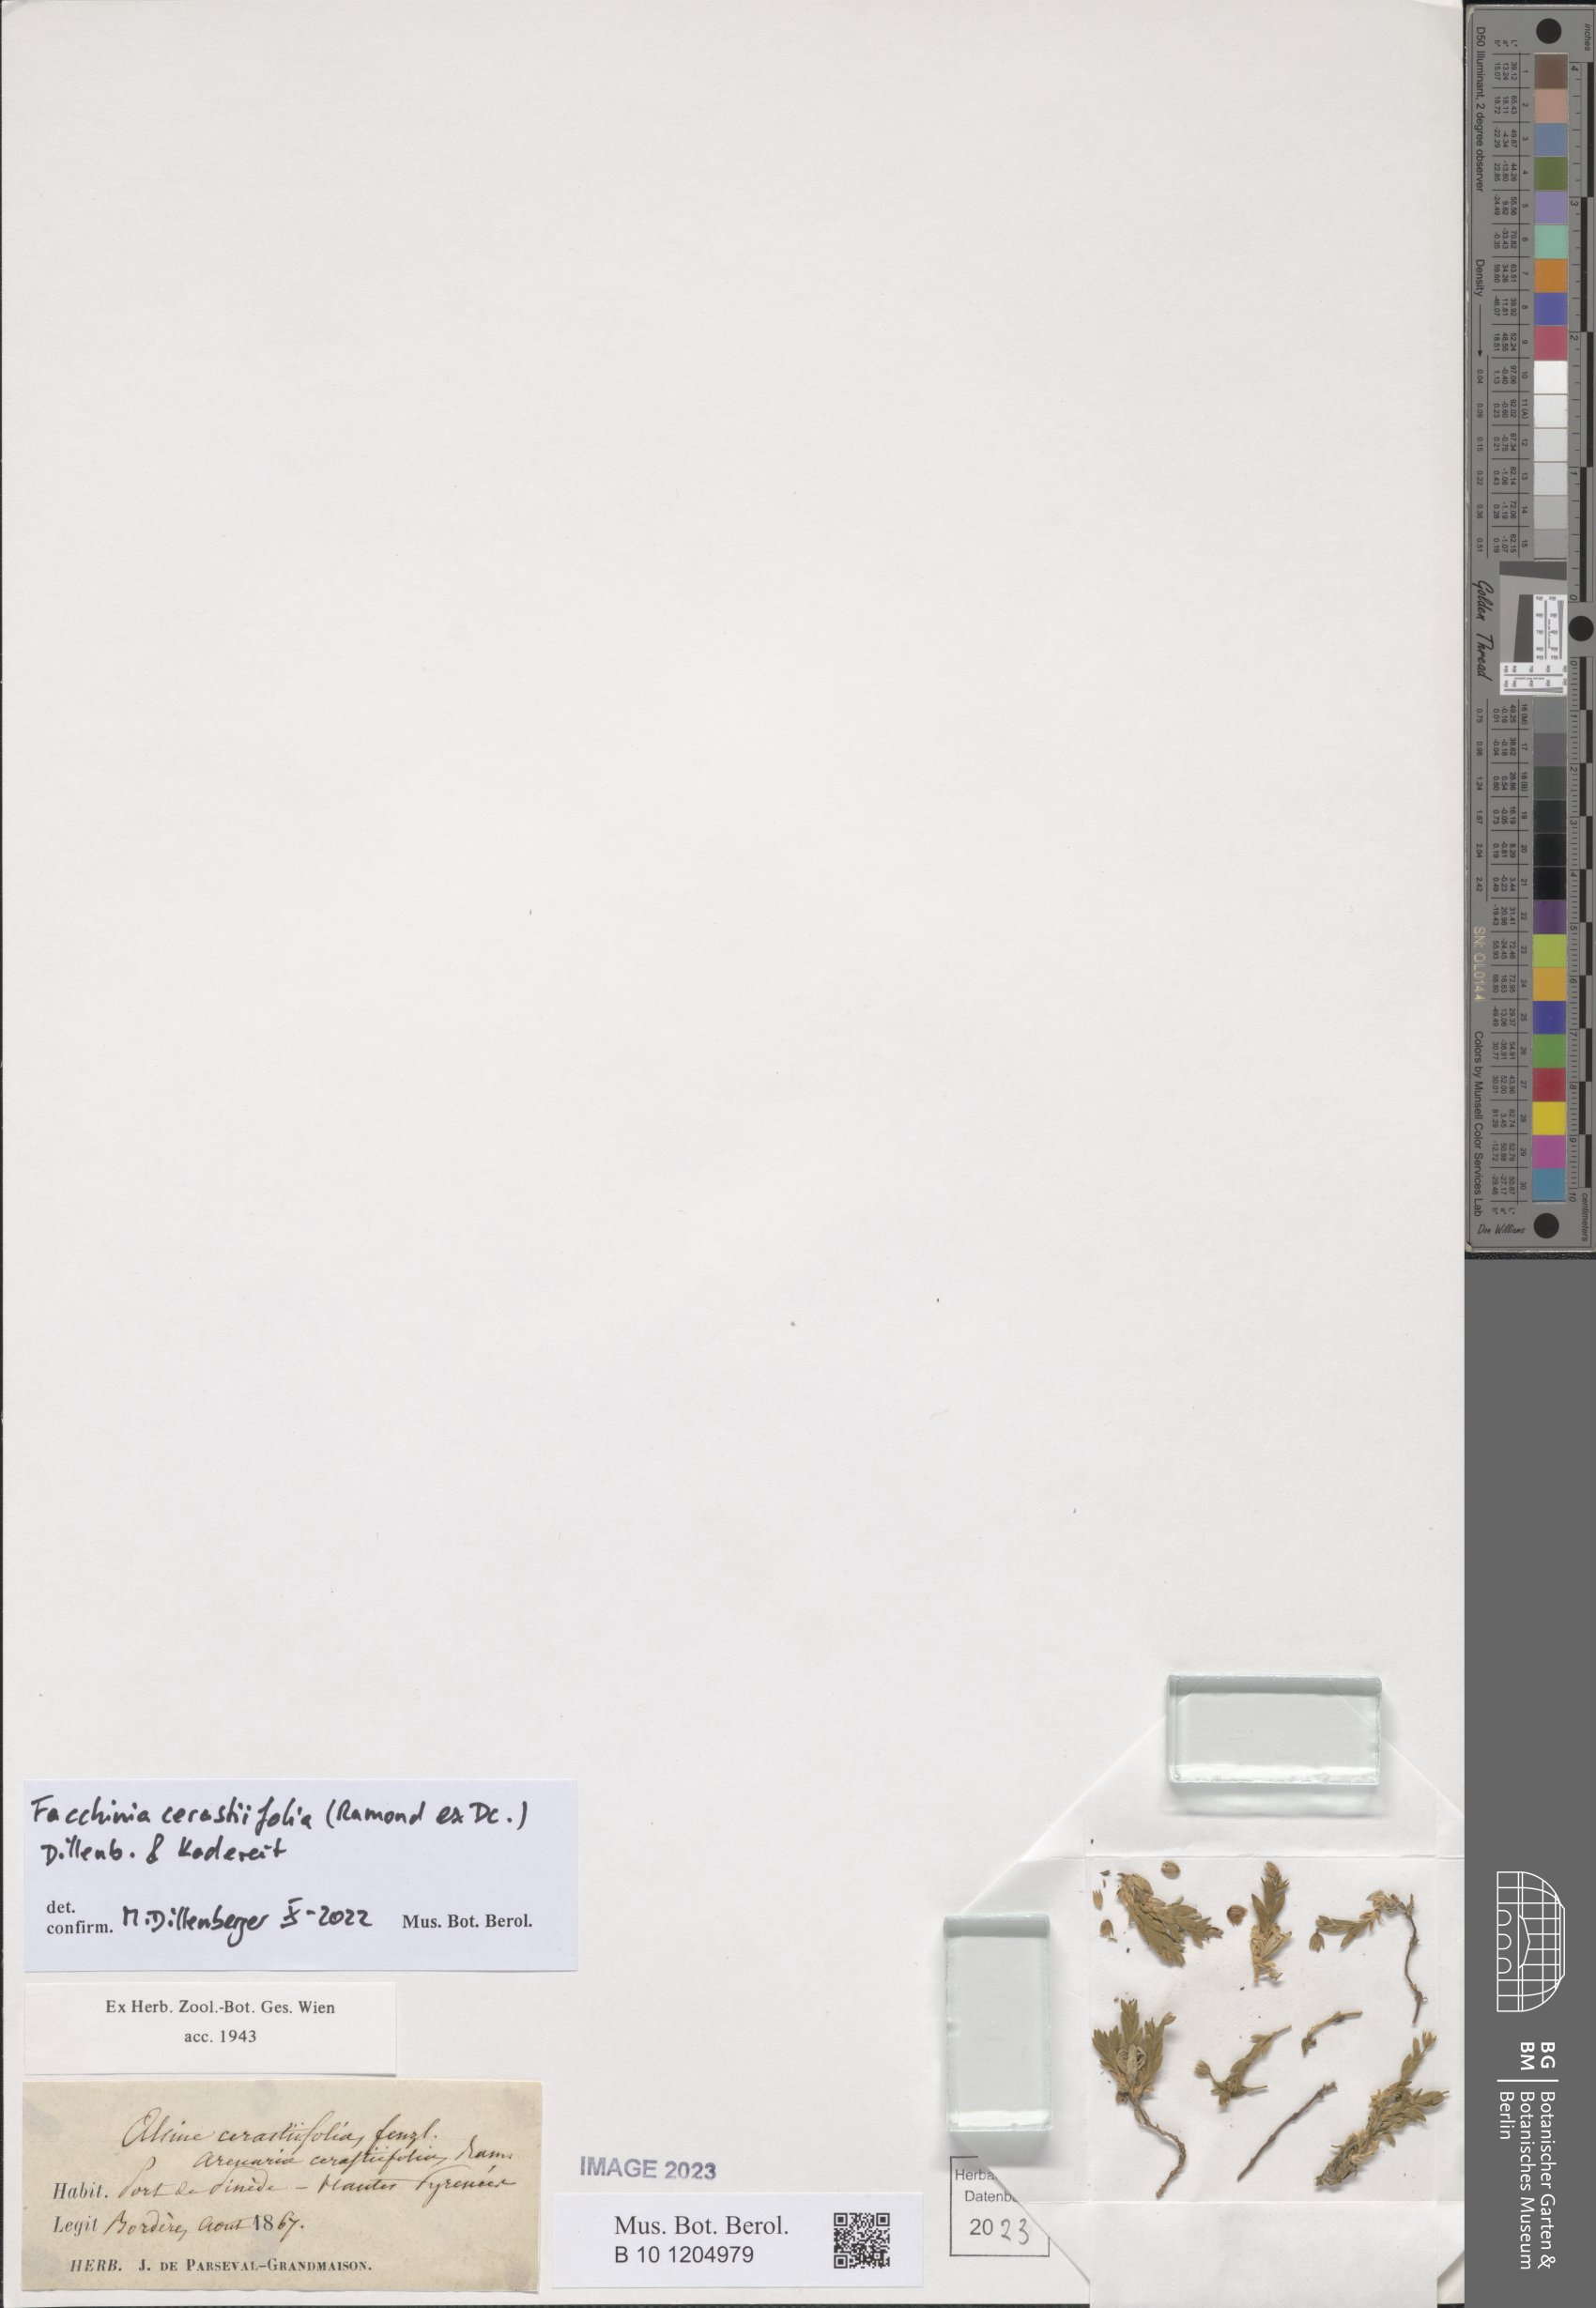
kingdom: Plantae
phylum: Tracheophyta
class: Magnoliopsida
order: Caryophyllales
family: Caryophyllaceae
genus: Facchinia
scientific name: Facchinia cerastiifolia
